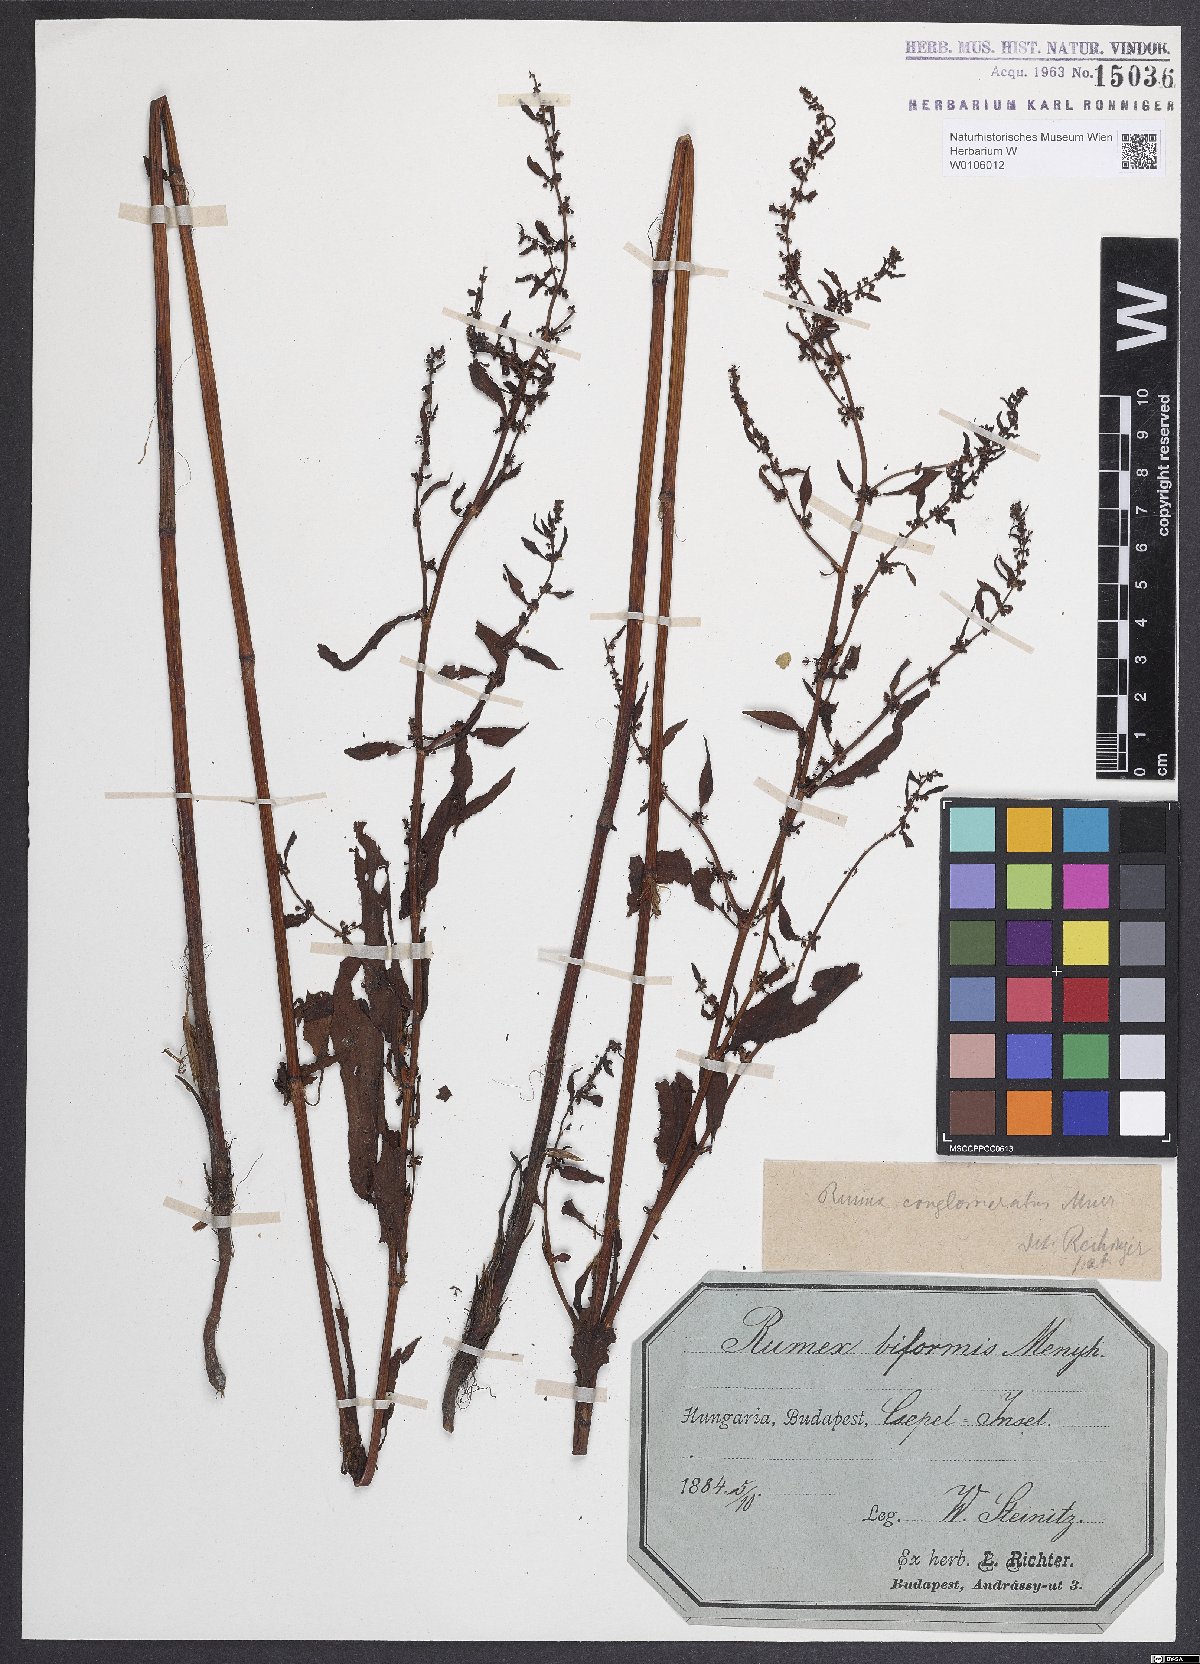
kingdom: Plantae
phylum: Tracheophyta
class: Magnoliopsida
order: Caryophyllales
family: Polygonaceae
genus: Rumex
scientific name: Rumex conglomeratus
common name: Clustered dock
